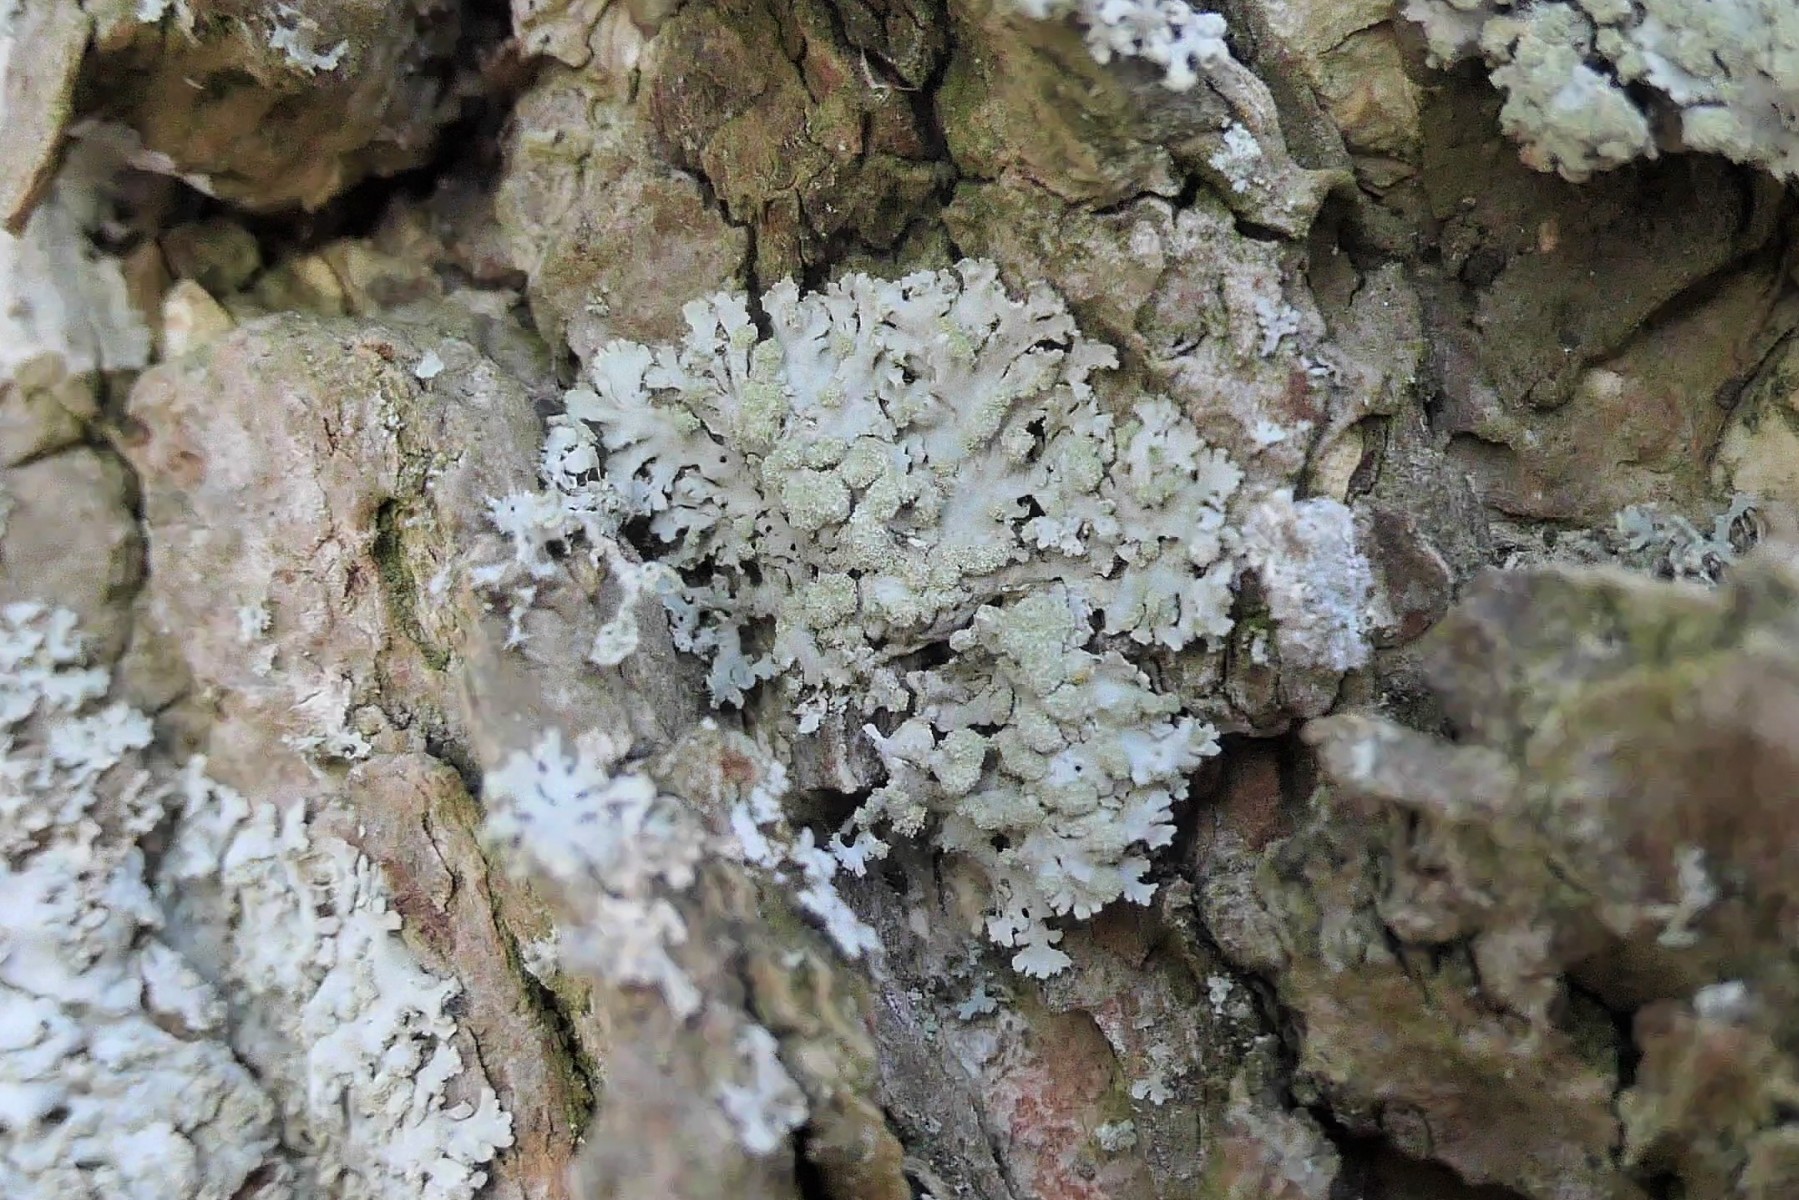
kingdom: Fungi
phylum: Ascomycota
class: Lecanoromycetes
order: Caliciales
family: Physciaceae
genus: Phaeophyscia
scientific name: Phaeophyscia orbicularis
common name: grågrøn rosetlav
